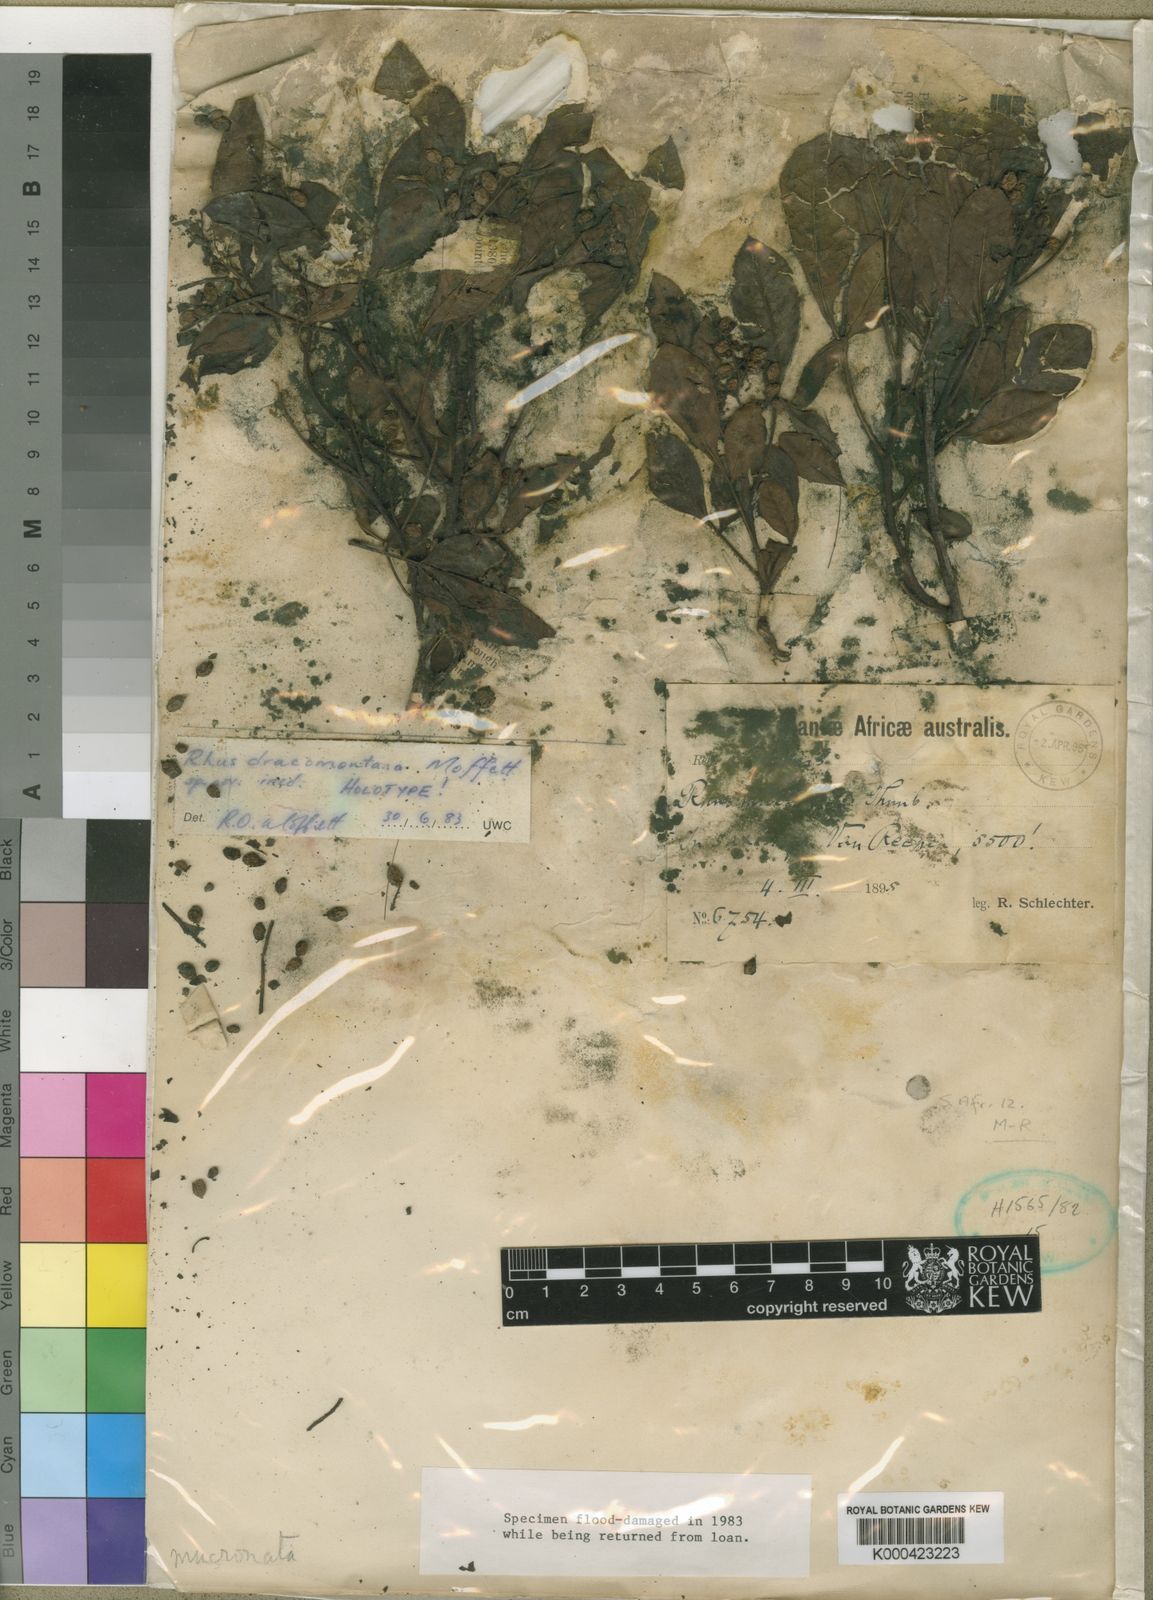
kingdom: Plantae
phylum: Tracheophyta
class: Magnoliopsida
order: Sapindales
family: Anacardiaceae
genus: Searsia
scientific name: Searsia dracomontana
